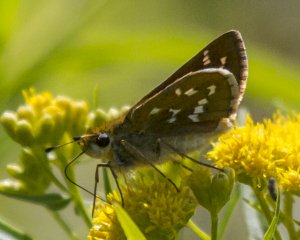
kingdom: Animalia
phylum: Arthropoda
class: Insecta
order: Lepidoptera
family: Hesperiidae
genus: Hesperia
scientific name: Hesperia comma
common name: Common Branded Skipper
